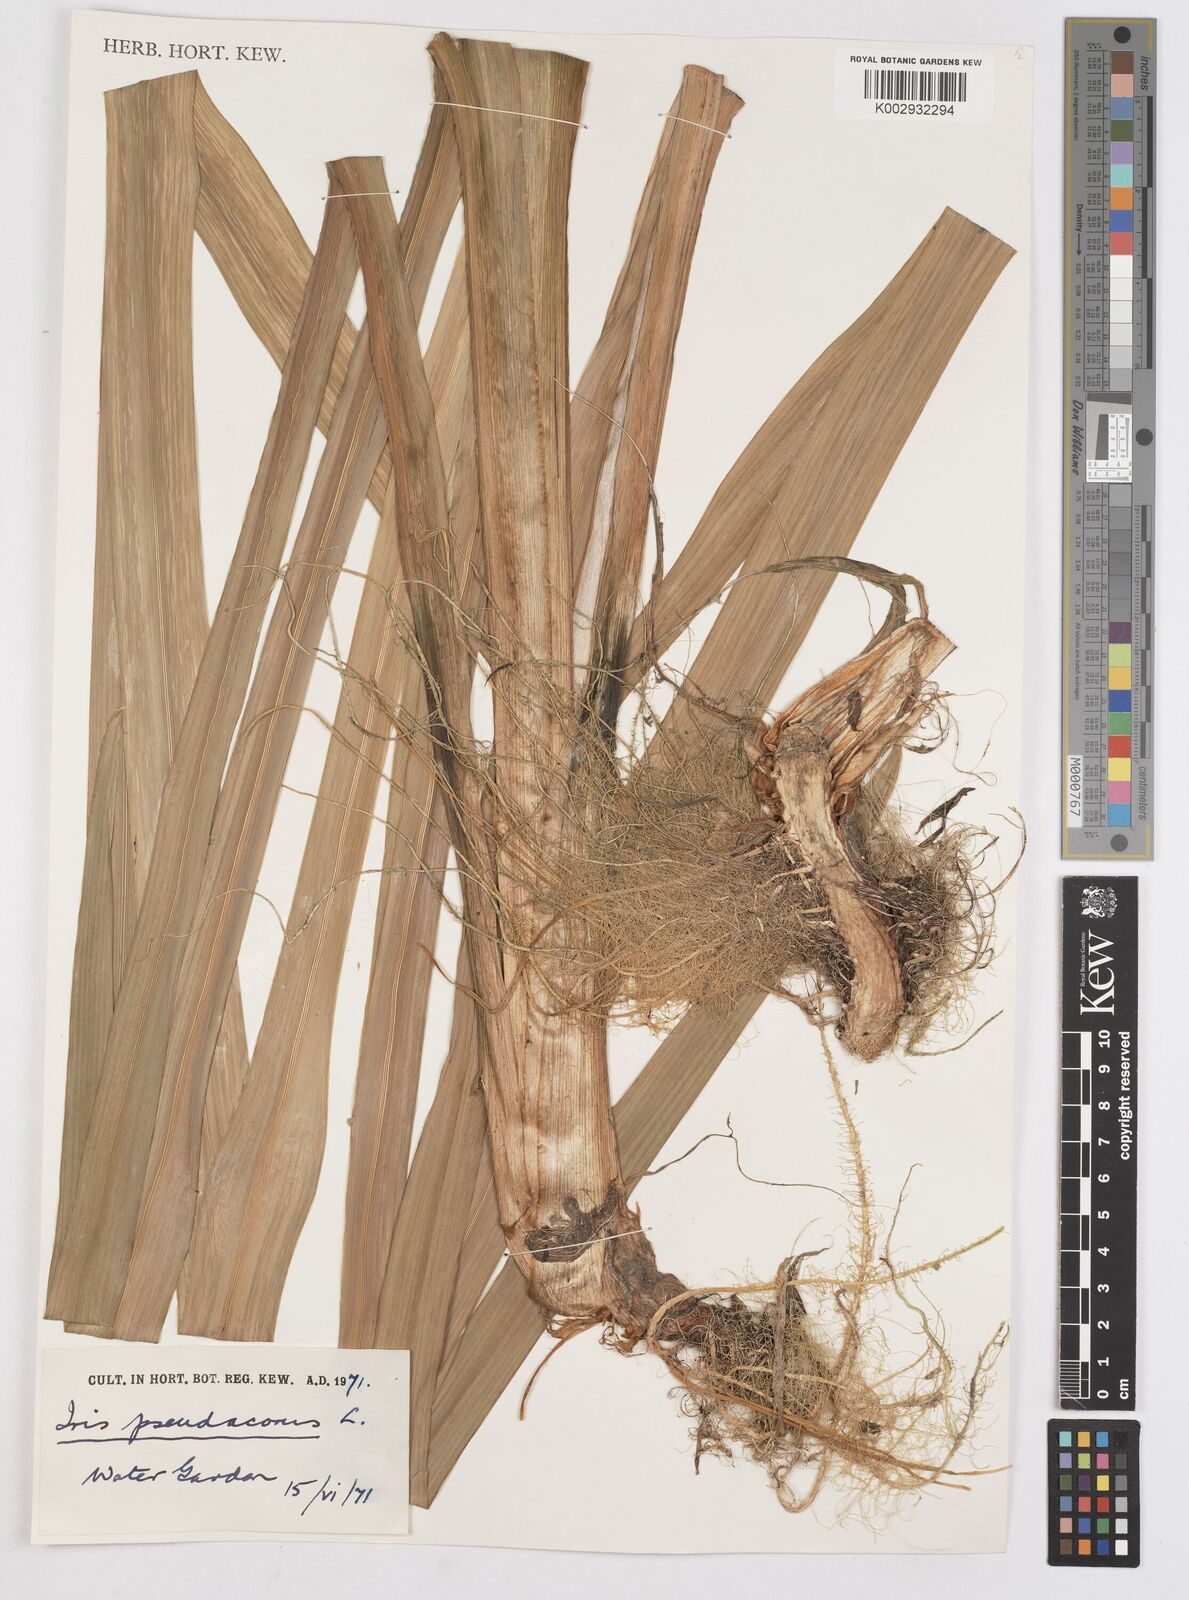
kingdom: Plantae
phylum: Tracheophyta
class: Liliopsida
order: Asparagales
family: Iridaceae
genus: Iris
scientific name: Iris pseudacorus
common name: Yellow flag
